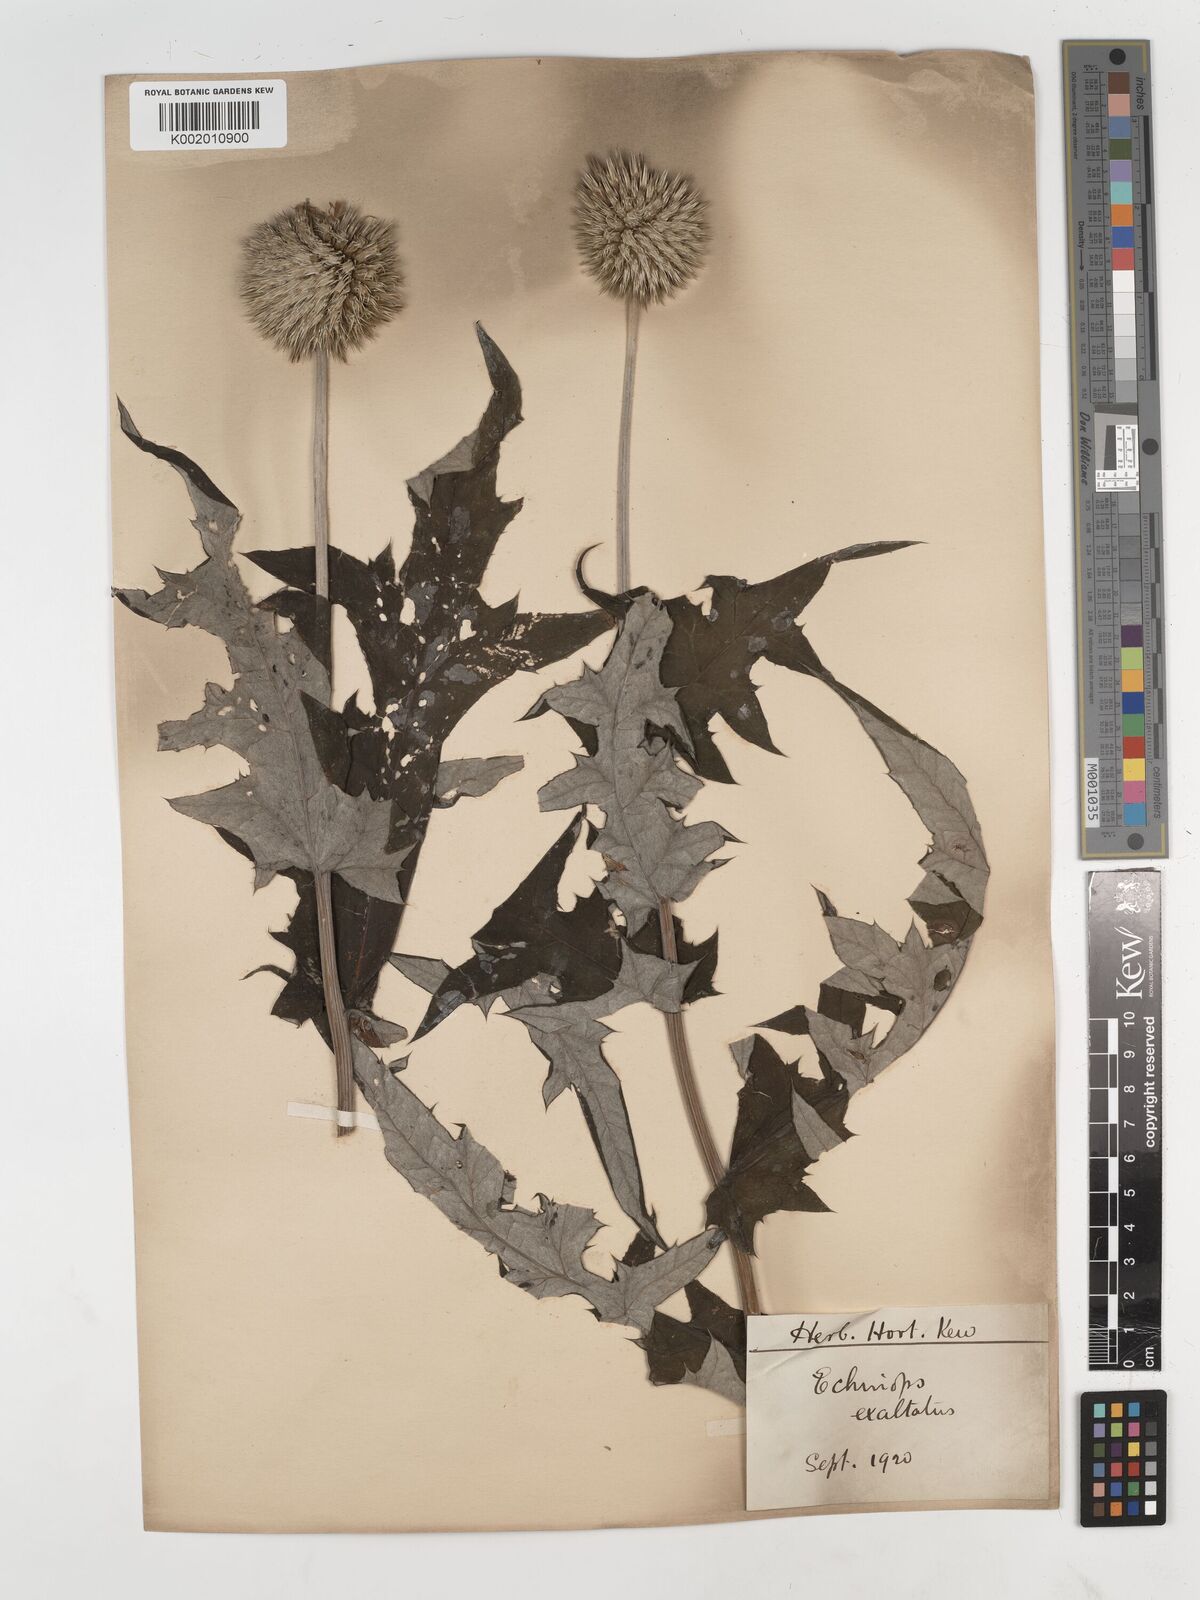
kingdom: Plantae
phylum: Tracheophyta
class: Magnoliopsida
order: Asterales
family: Asteraceae
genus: Echinops
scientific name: Echinops exaltatus
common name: Globe-thistle
